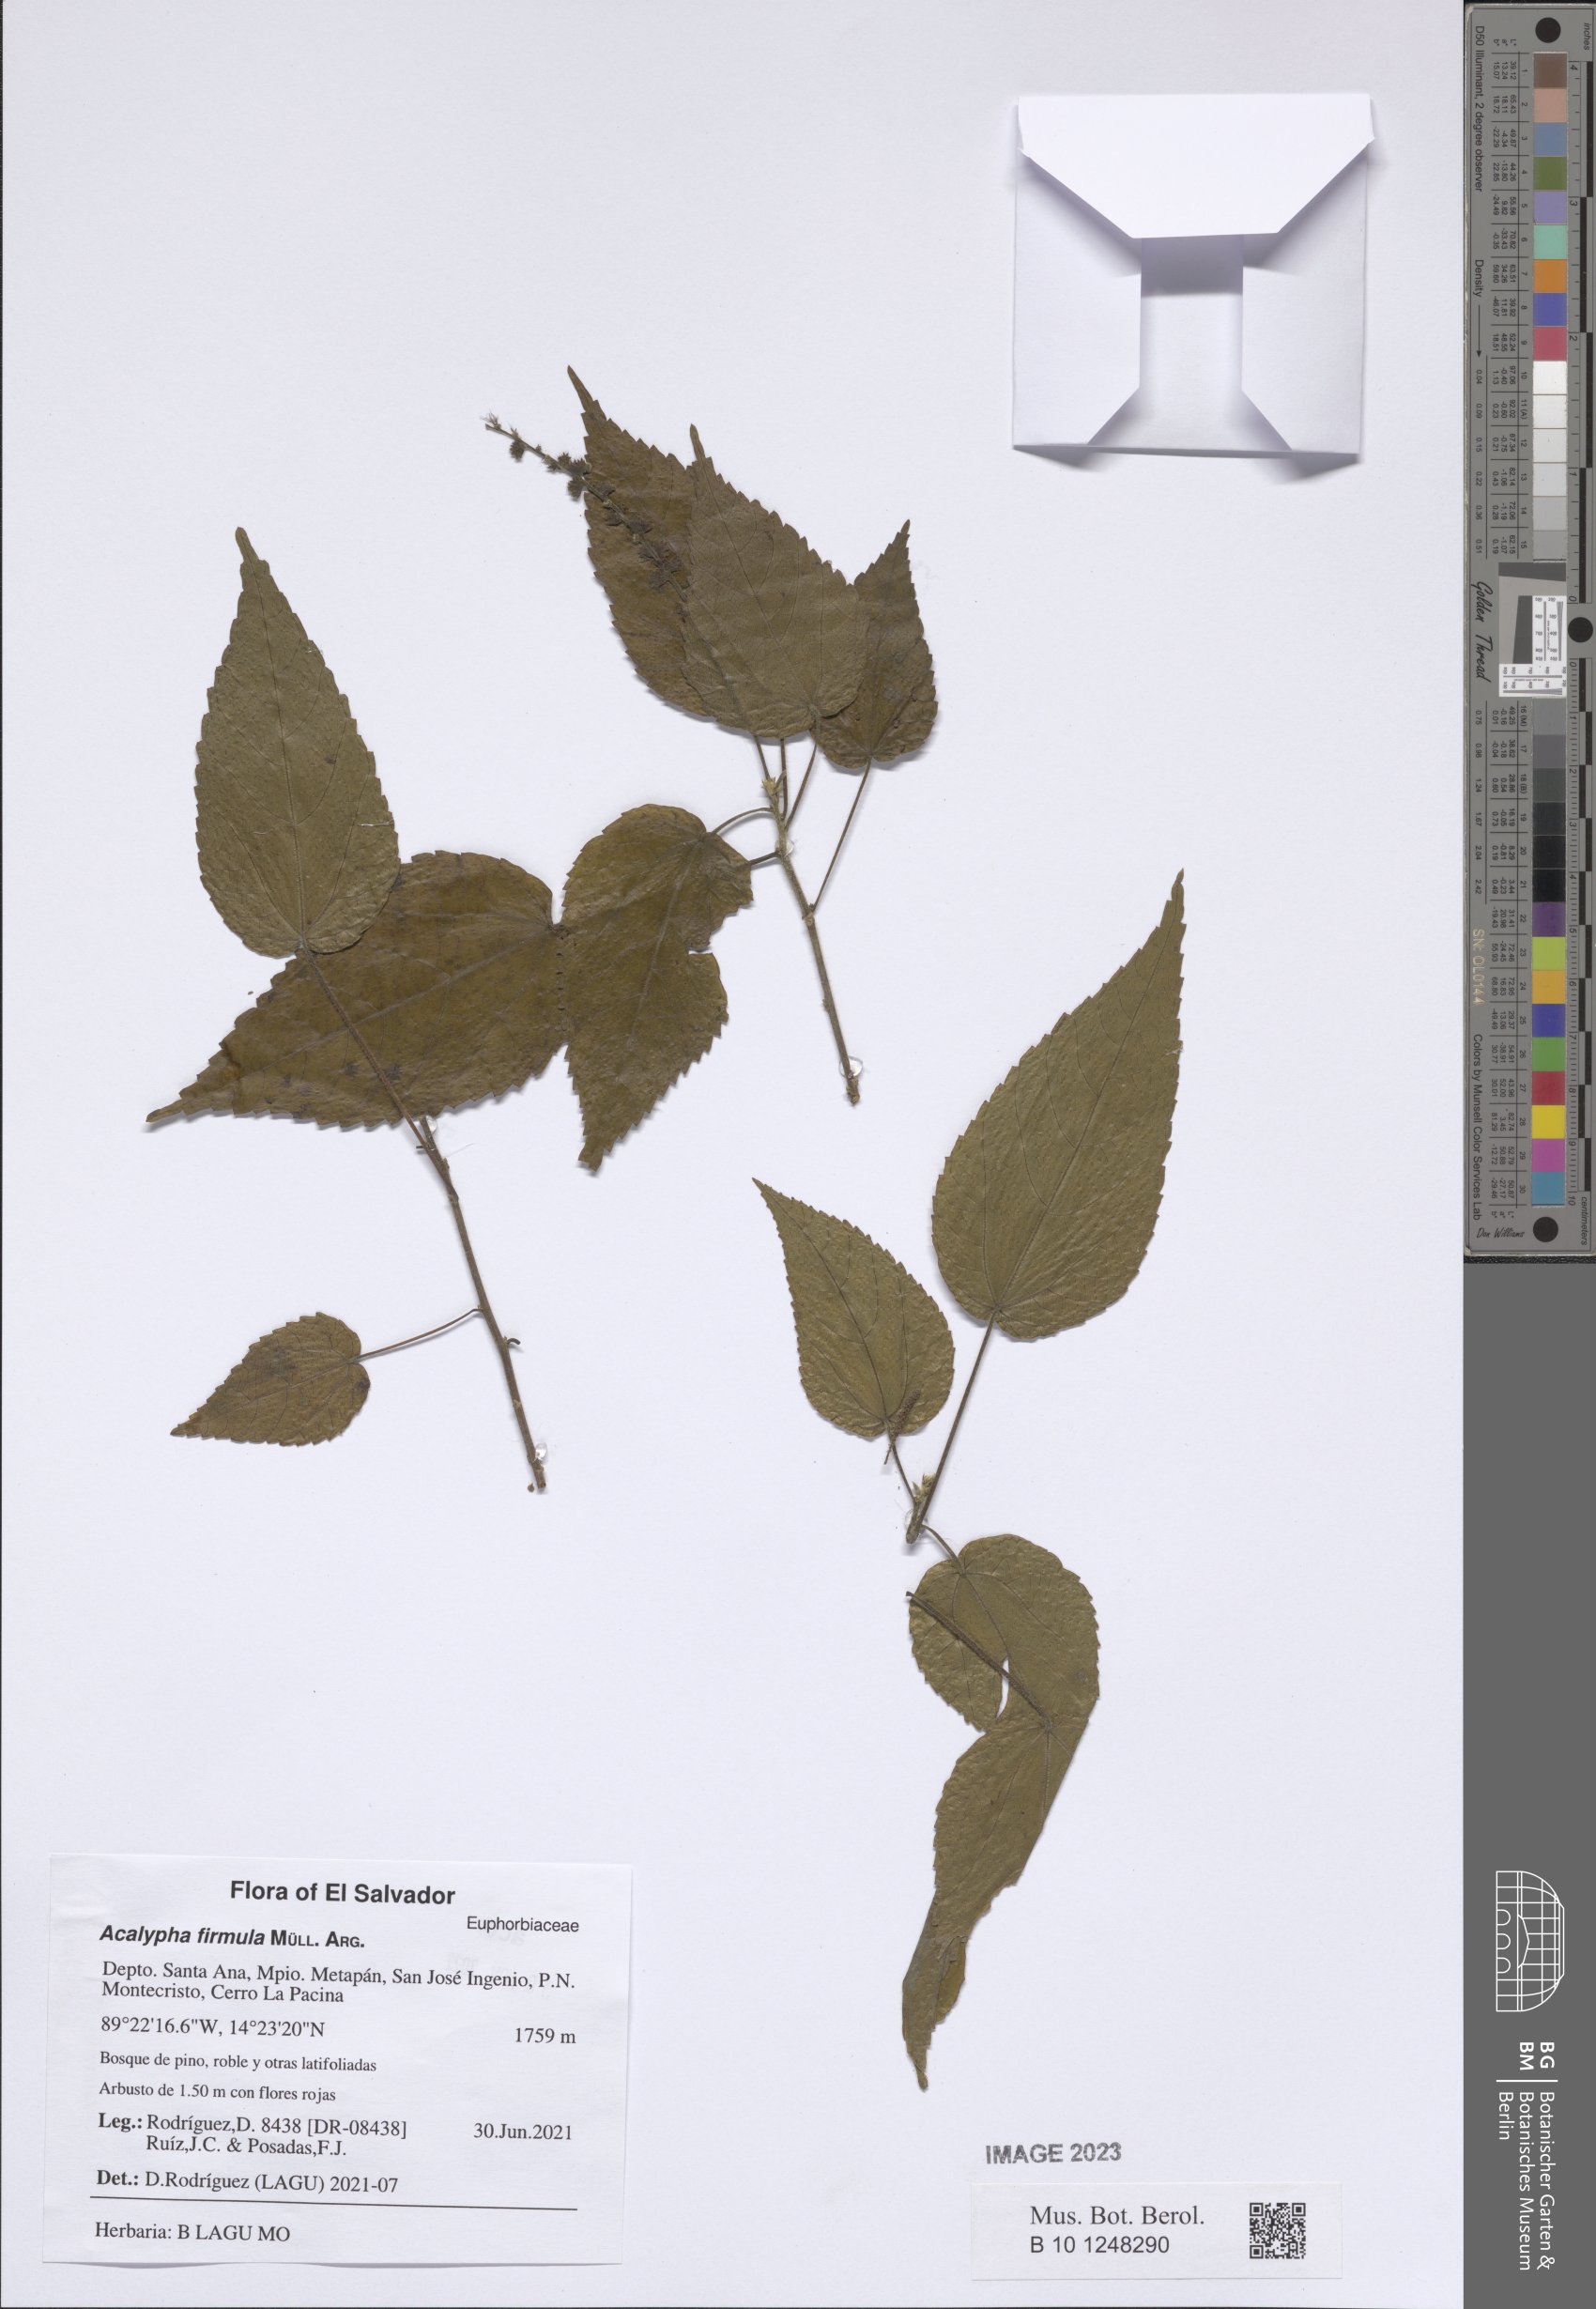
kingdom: Plantae
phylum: Tracheophyta
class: Magnoliopsida
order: Malpighiales
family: Euphorbiaceae
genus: Acalypha
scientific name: Acalypha firmula
